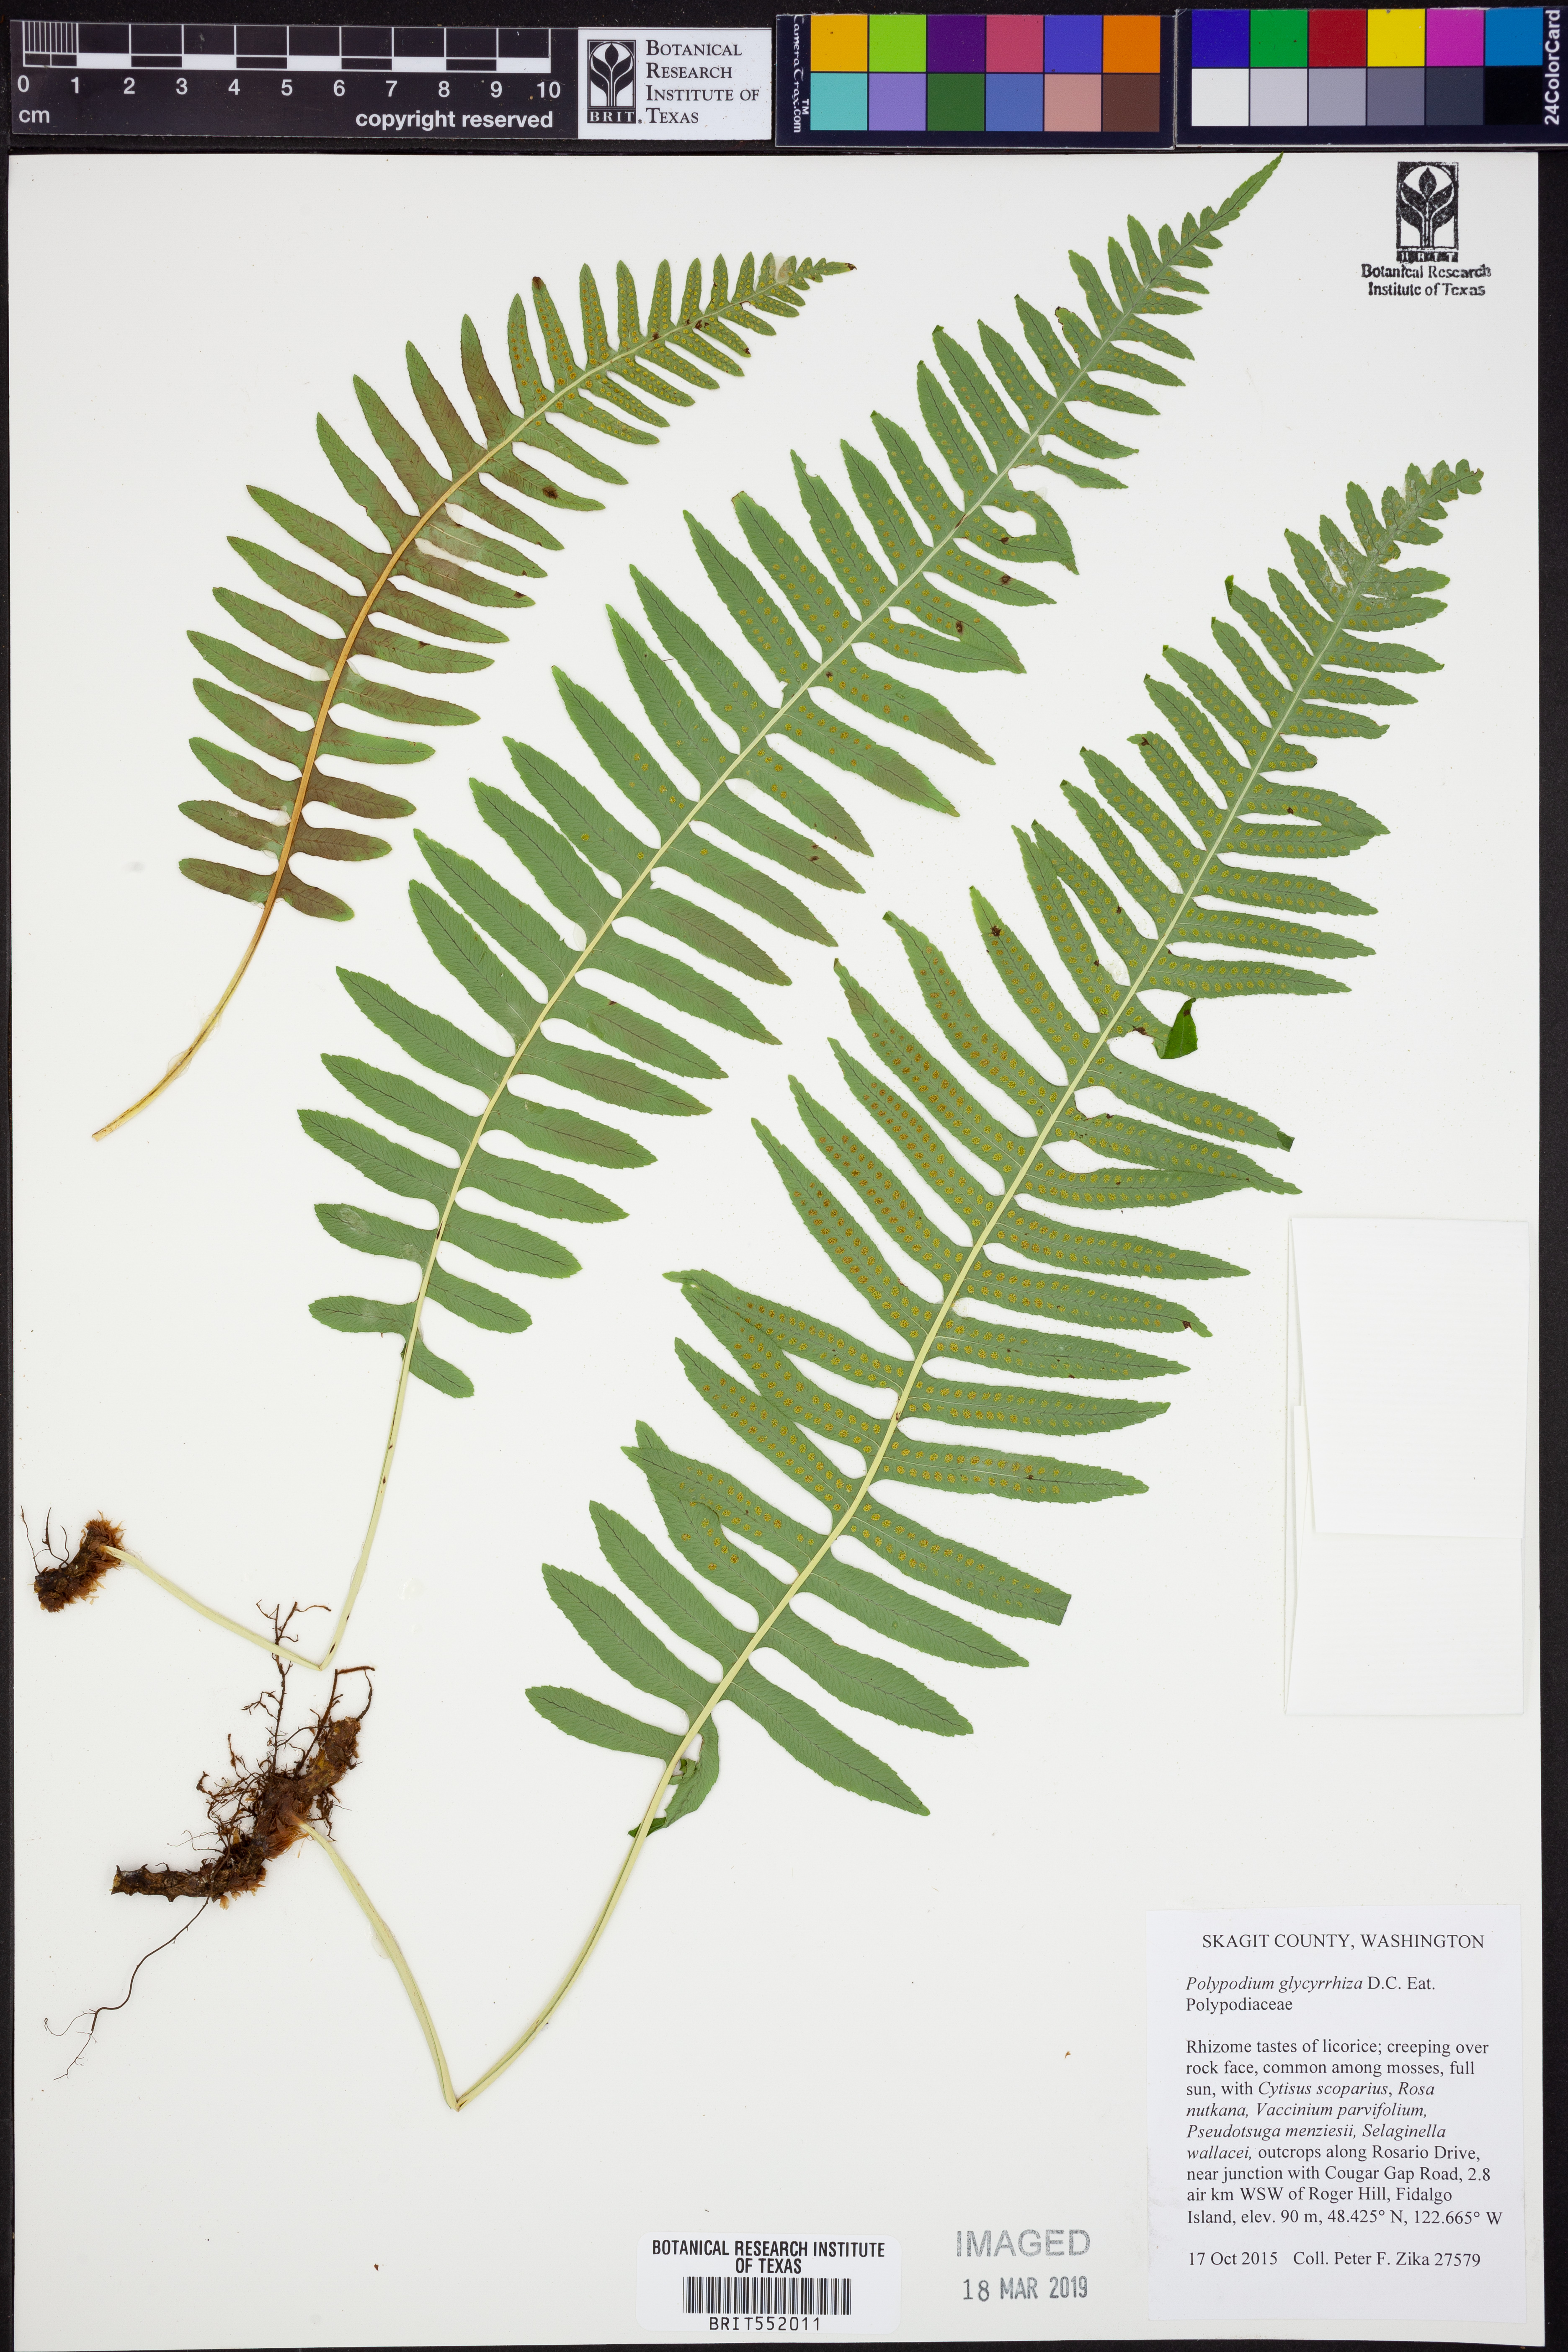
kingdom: Plantae
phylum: Tracheophyta
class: Polypodiopsida
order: Polypodiales
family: Polypodiaceae
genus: Polypodium
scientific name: Polypodium glycyrrhiza
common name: Licorice fern
